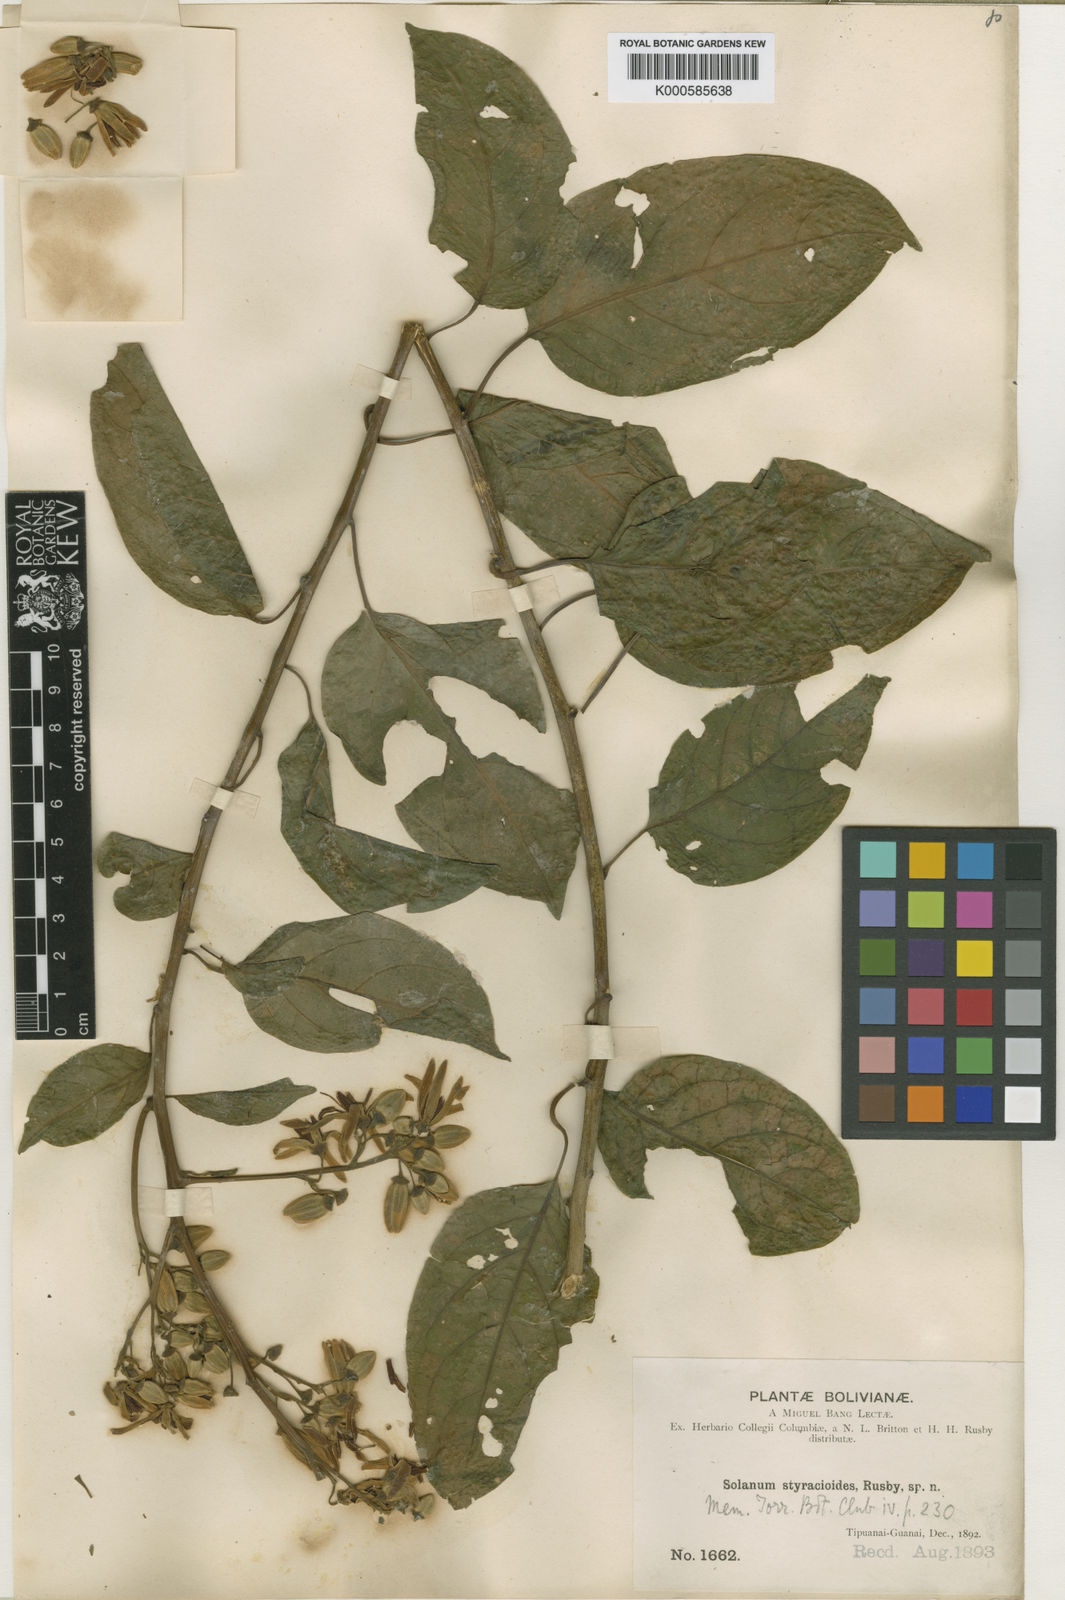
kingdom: Plantae
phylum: Tracheophyta
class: Magnoliopsida
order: Solanales
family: Solanaceae
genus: Solanum
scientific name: Solanum uncinellum
